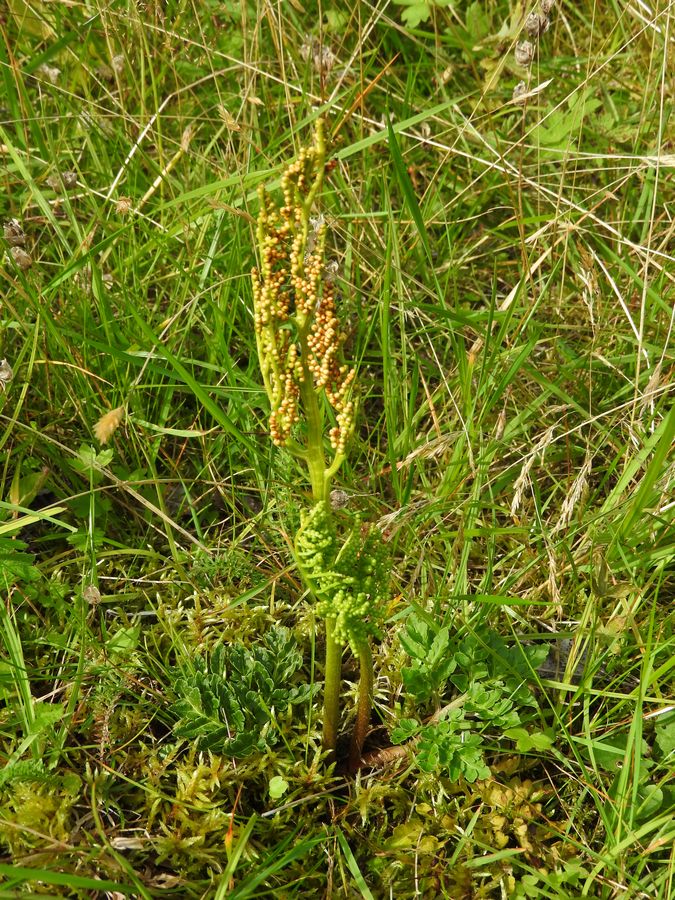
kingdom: Plantae
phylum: Tracheophyta
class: Polypodiopsida
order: Ophioglossales
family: Ophioglossaceae
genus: Sceptridium
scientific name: Sceptridium multifidum
